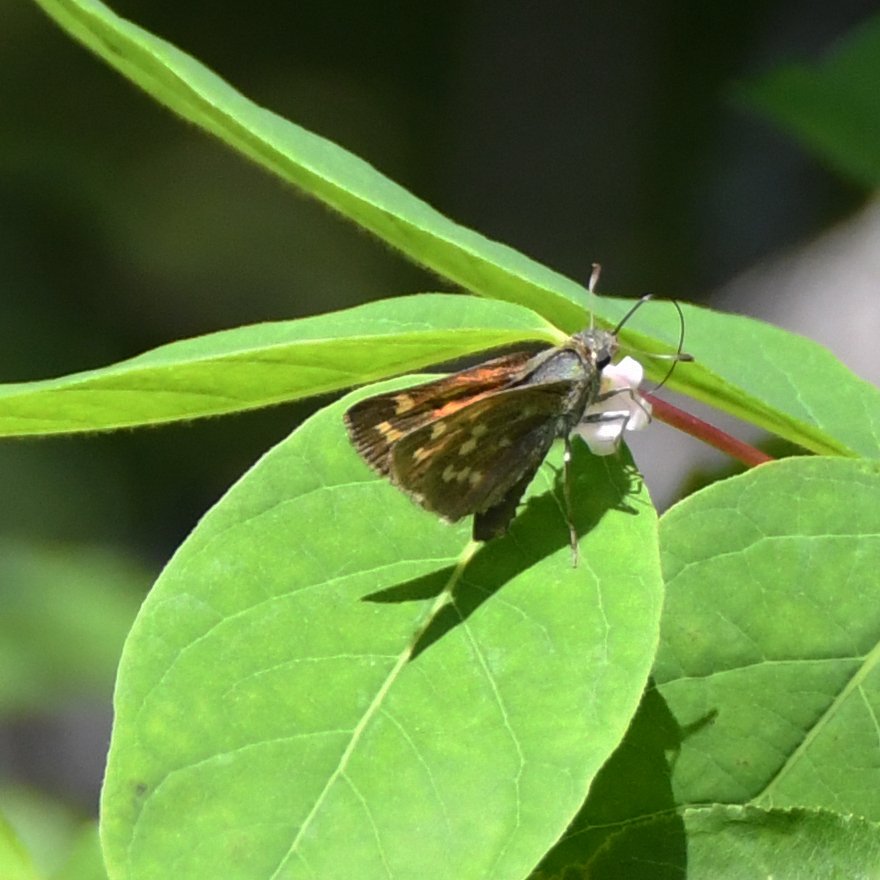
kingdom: Animalia
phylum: Arthropoda
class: Insecta
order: Lepidoptera
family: Hesperiidae
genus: Hesperia
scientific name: Hesperia sassacus
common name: Sassacus Skipper
